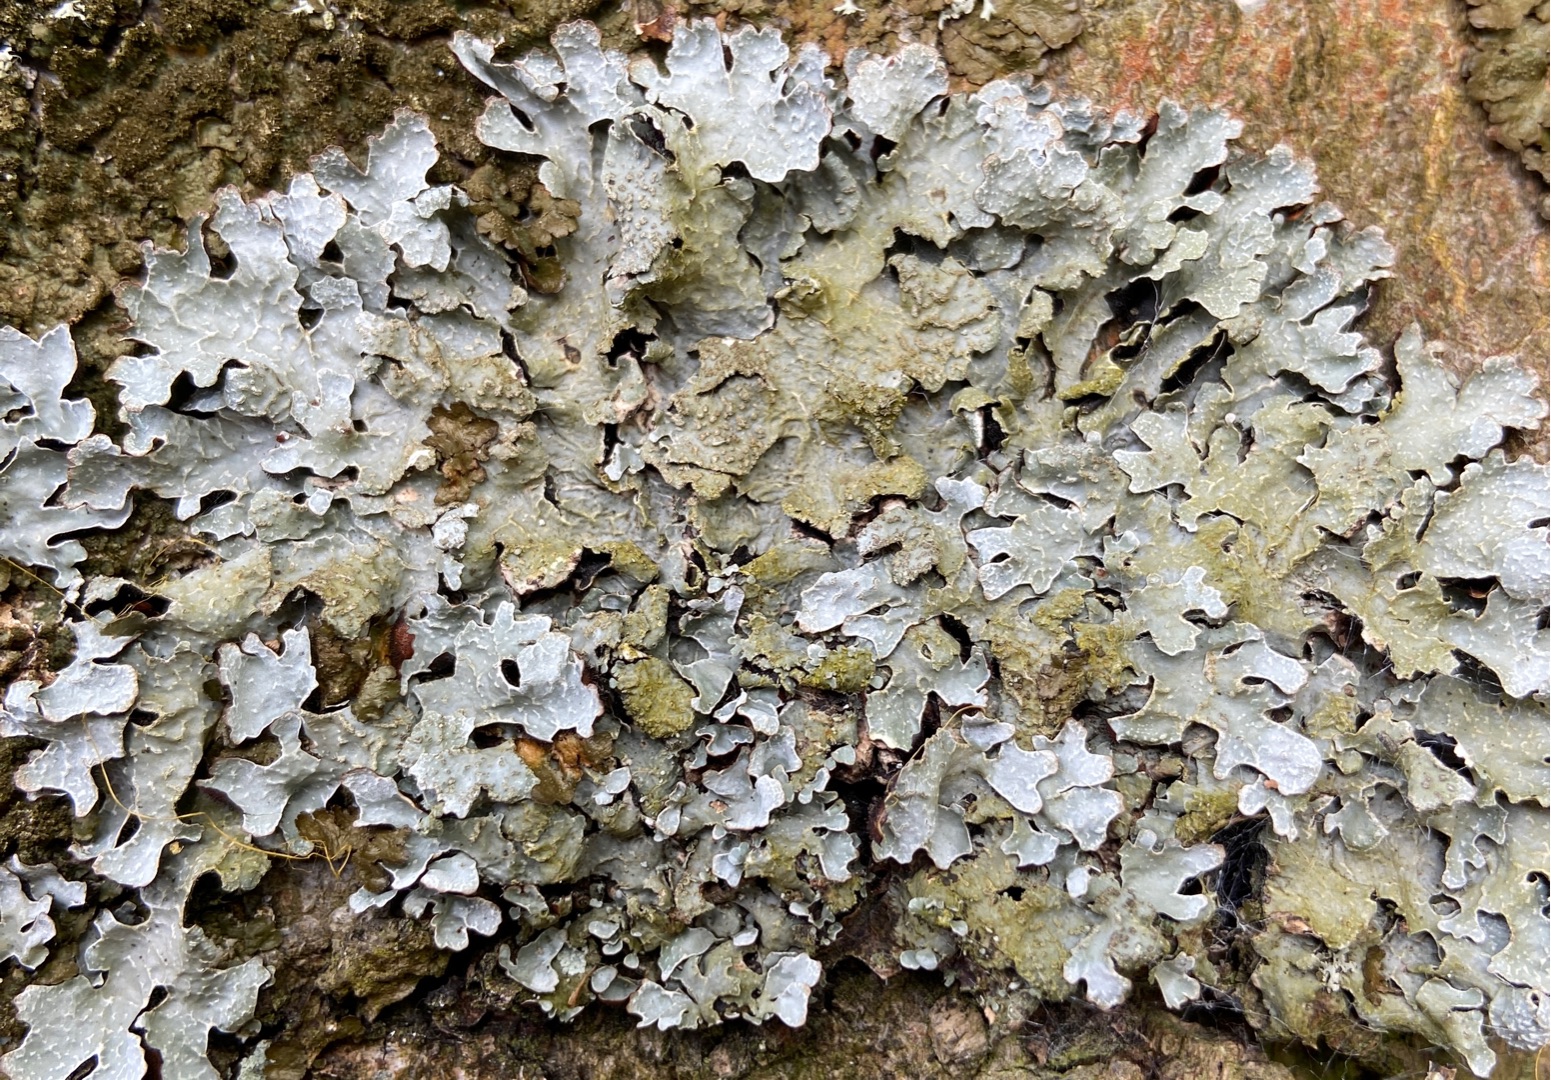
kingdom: Fungi
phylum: Ascomycota
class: Lecanoromycetes
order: Lecanorales
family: Parmeliaceae
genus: Parmelia
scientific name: Parmelia sulcata
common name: Rynket skållav
